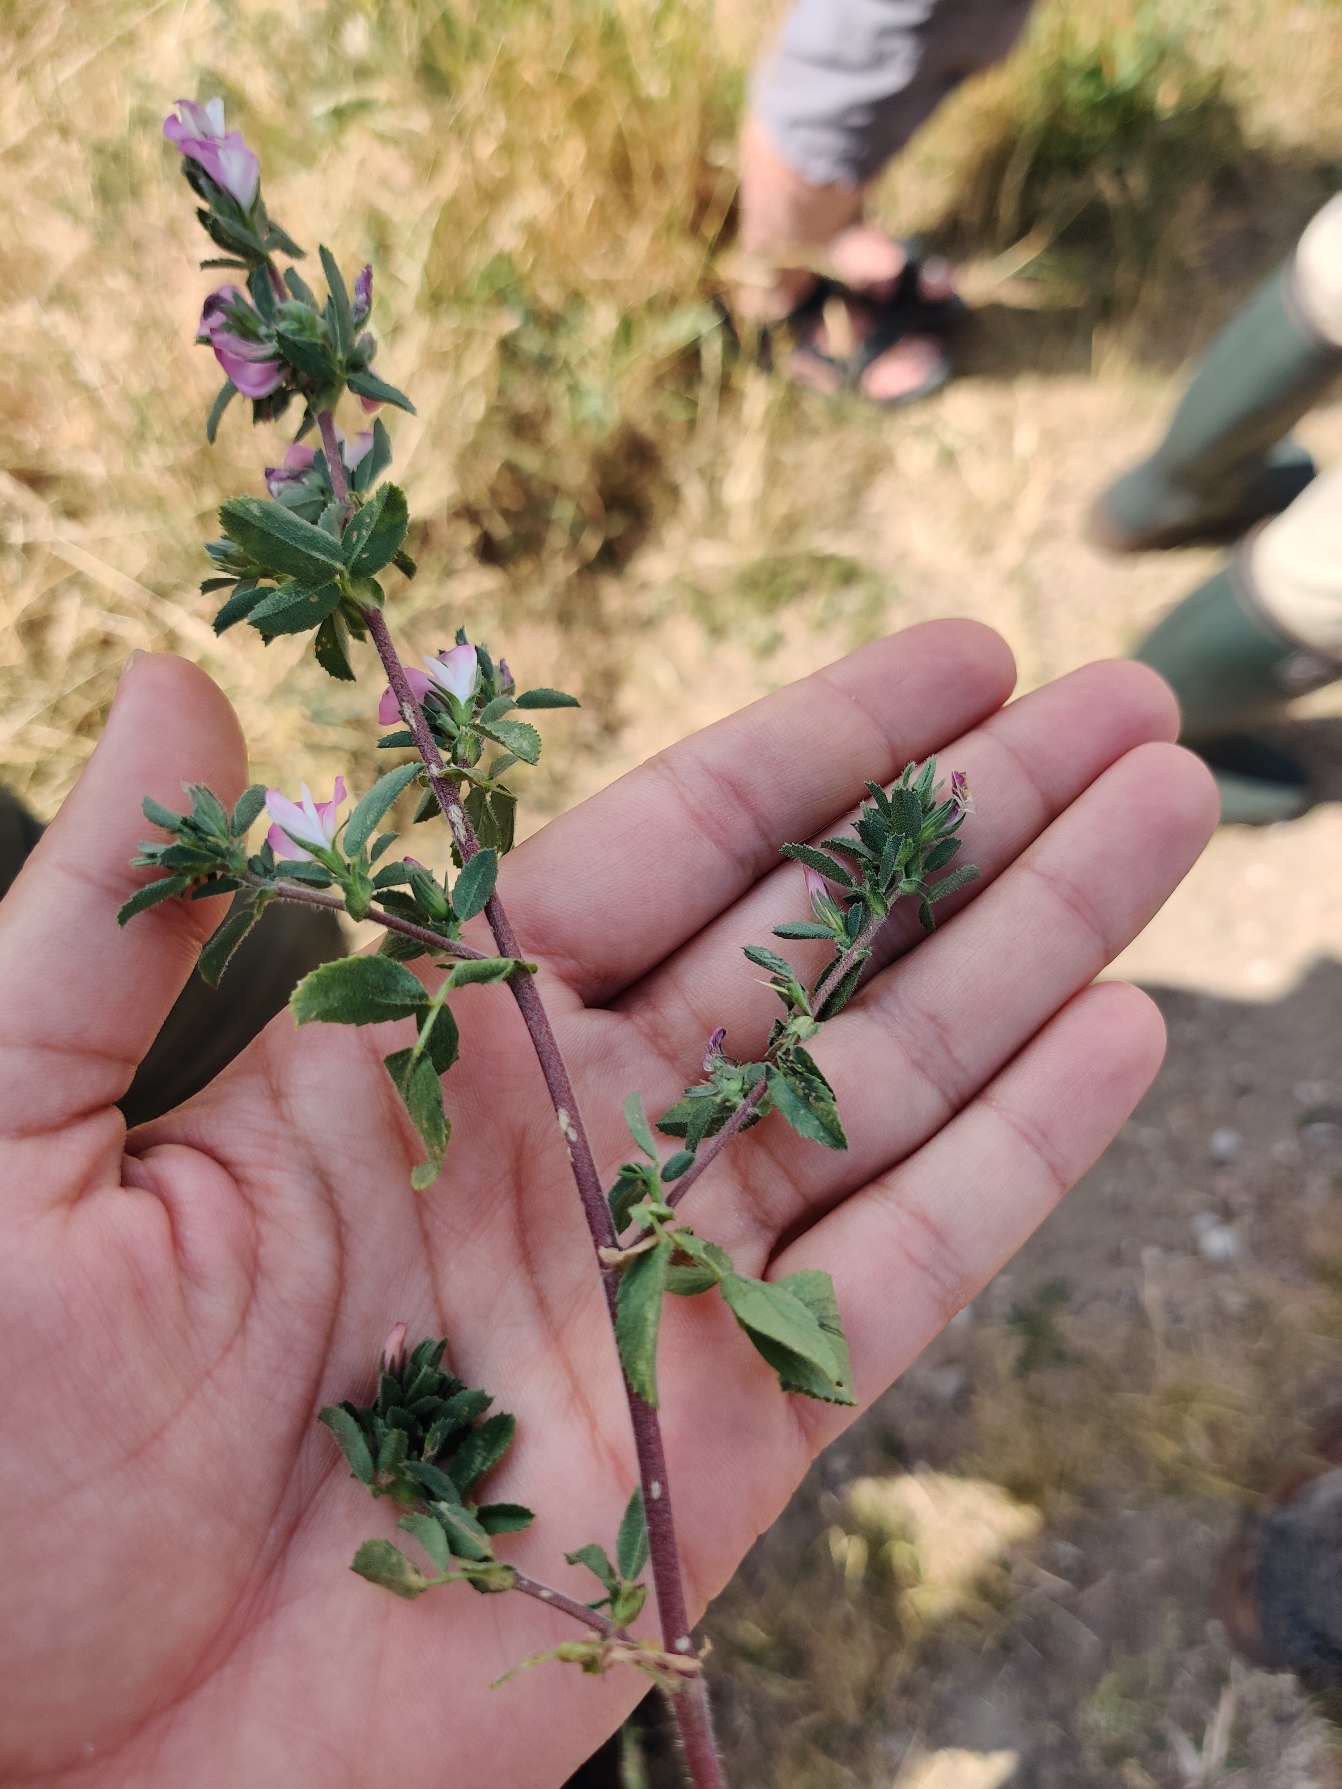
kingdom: Plantae
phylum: Tracheophyta
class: Magnoliopsida
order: Fabales
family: Fabaceae
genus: Ononis
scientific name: Ononis spinosa
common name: Mark-krageklo
